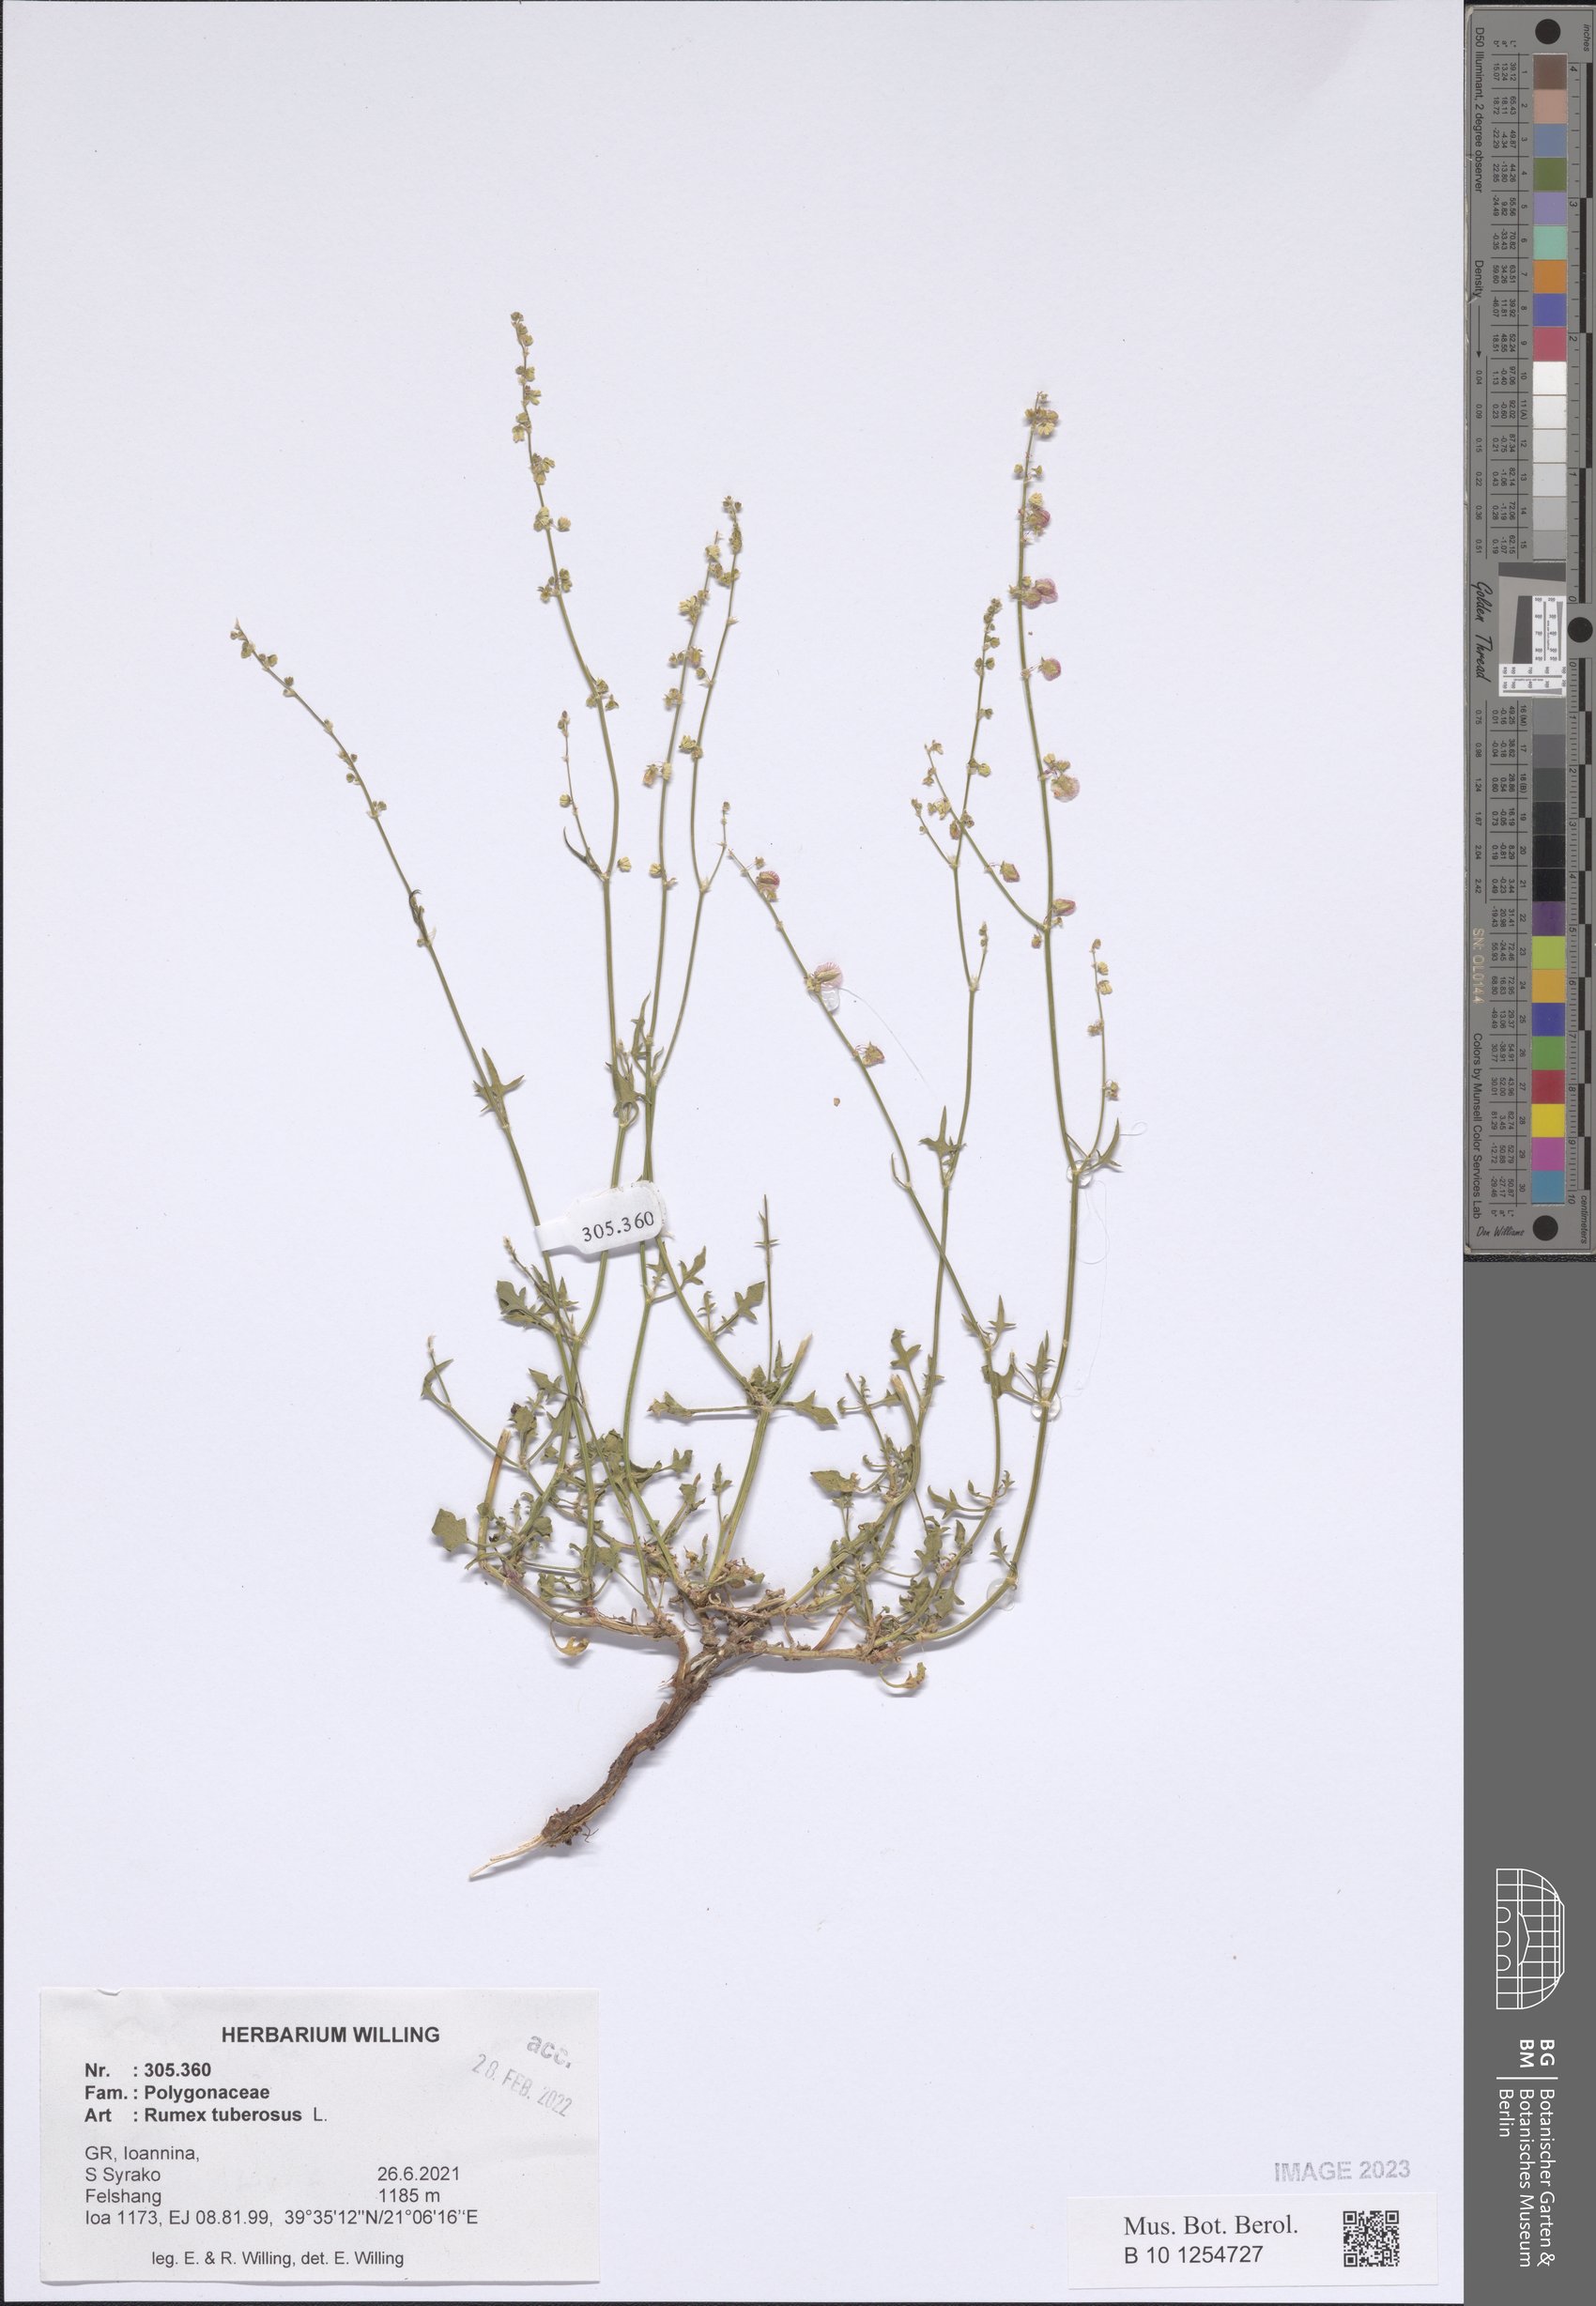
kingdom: Plantae
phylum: Tracheophyta
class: Magnoliopsida
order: Caryophyllales
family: Polygonaceae
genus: Rumex
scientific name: Rumex tuberosus
